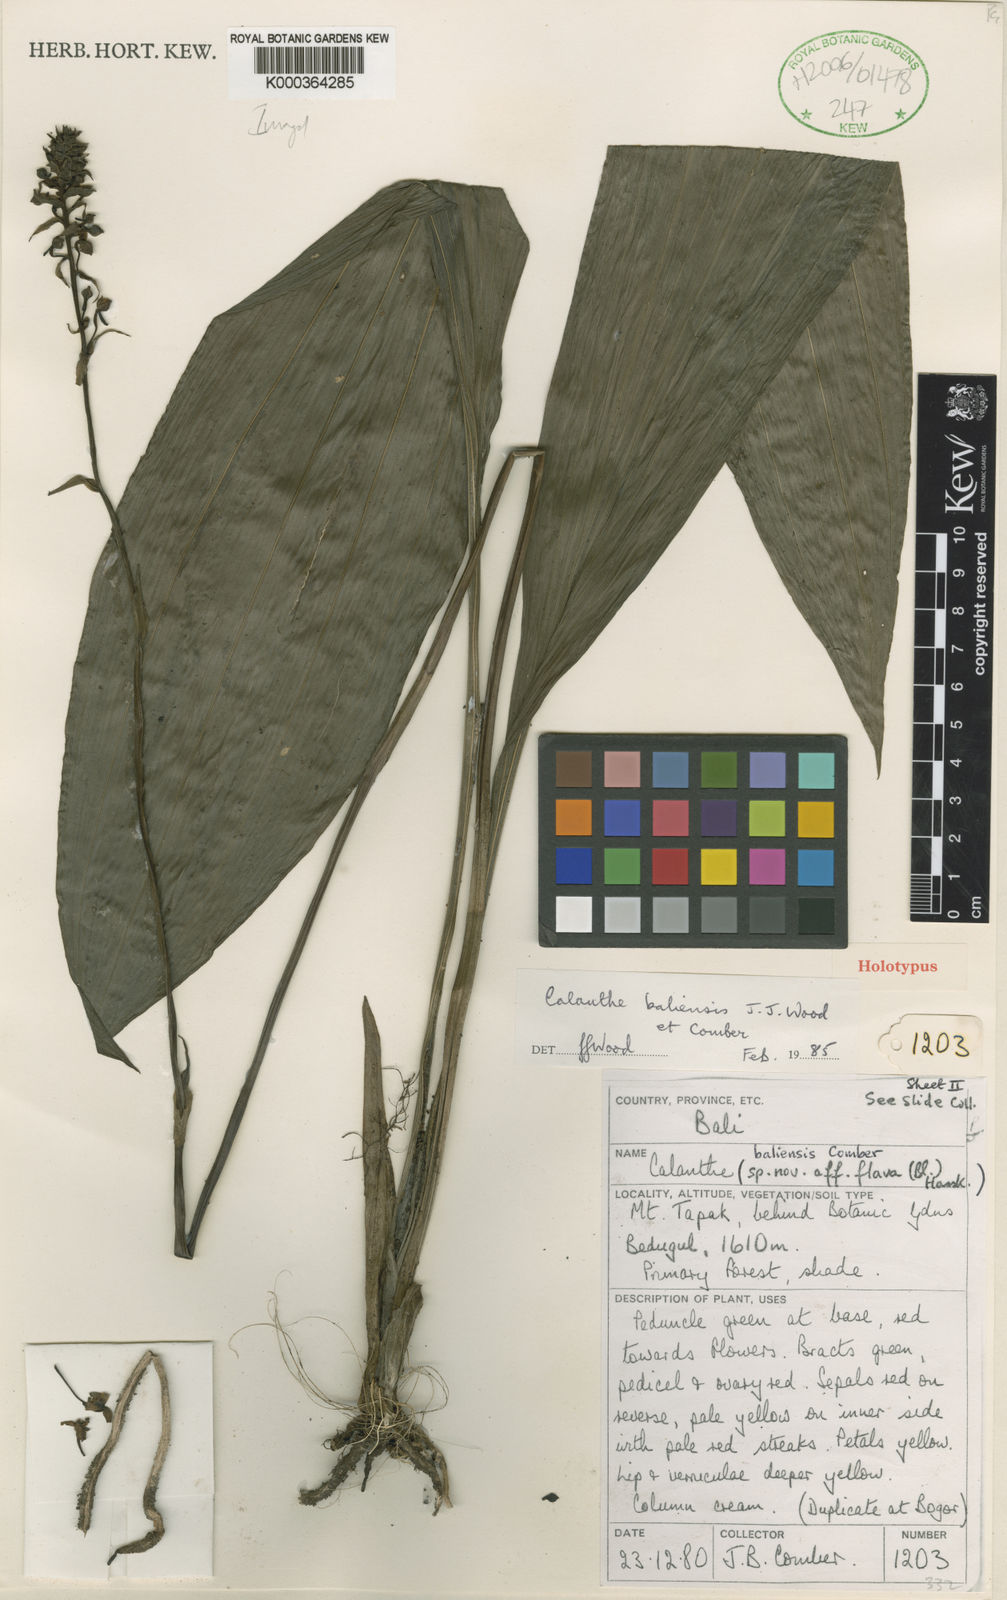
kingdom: Plantae
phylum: Tracheophyta
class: Liliopsida
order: Asparagales
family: Orchidaceae
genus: Calanthe
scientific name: Calanthe baliensis
